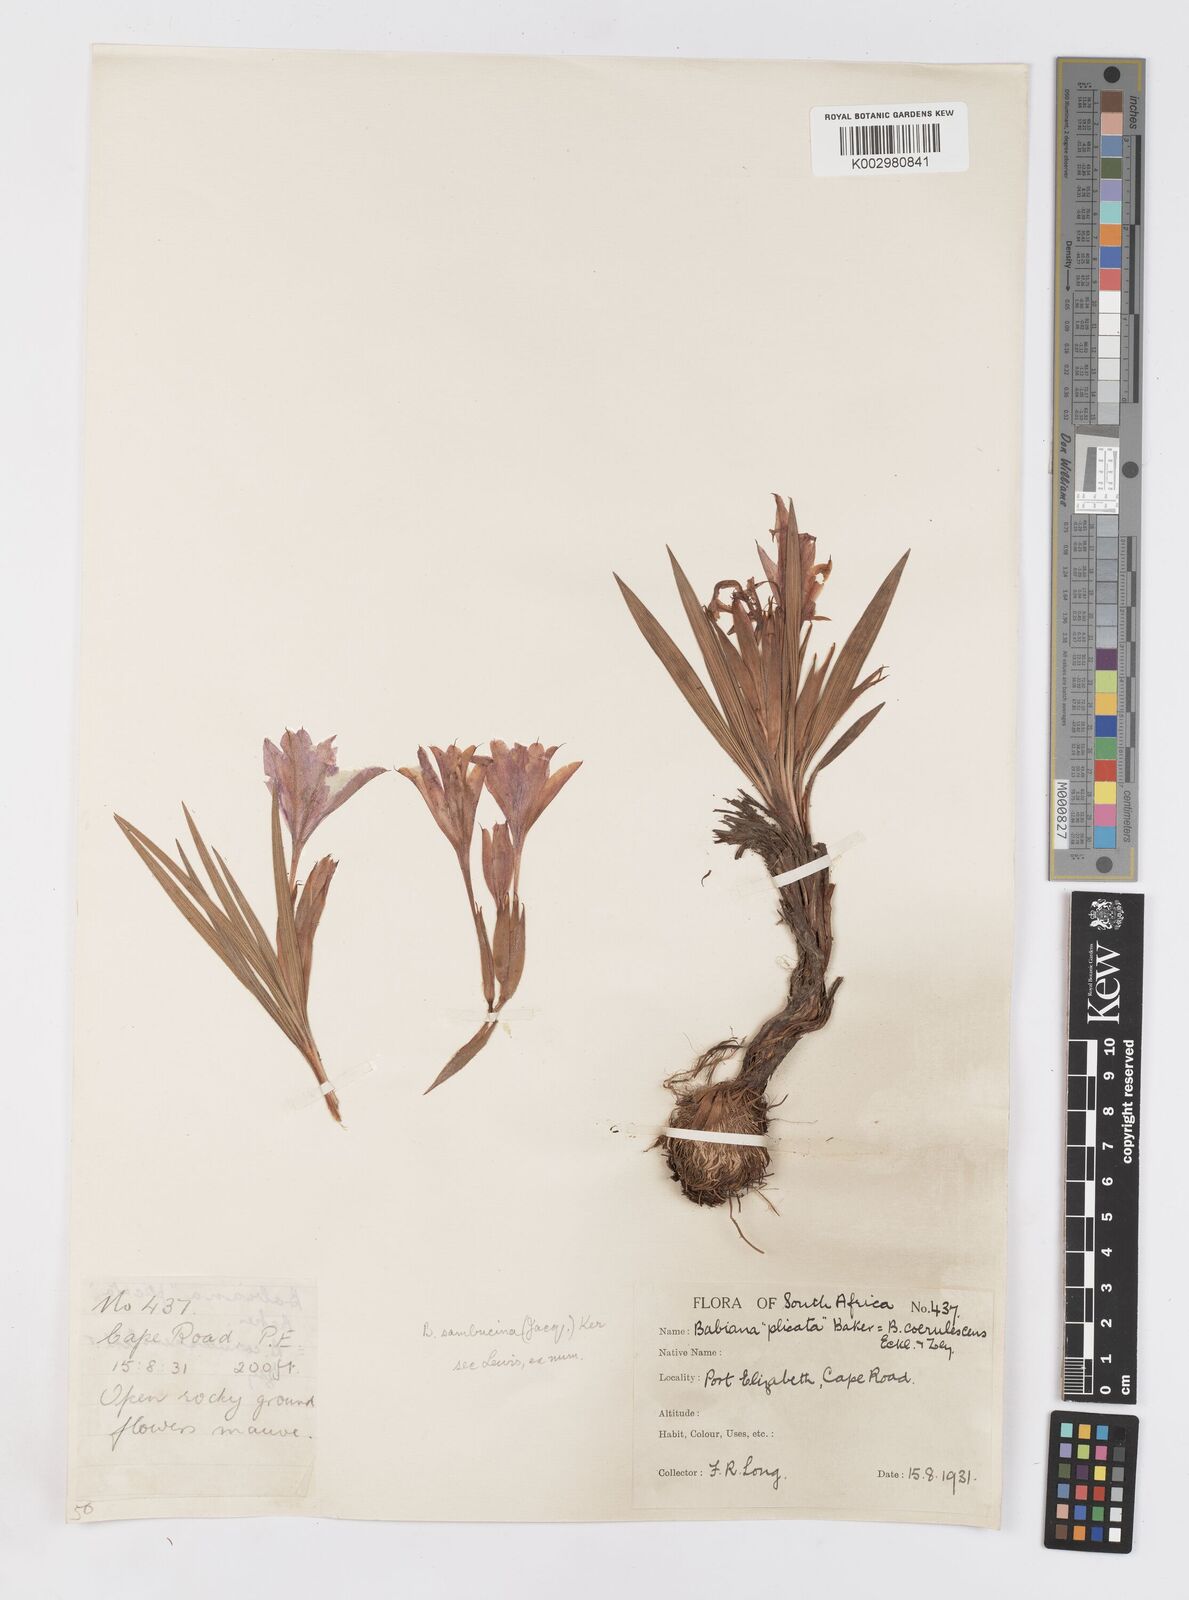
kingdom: Plantae
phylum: Tracheophyta
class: Liliopsida
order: Asparagales
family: Iridaceae
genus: Babiana
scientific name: Babiana sambucina
